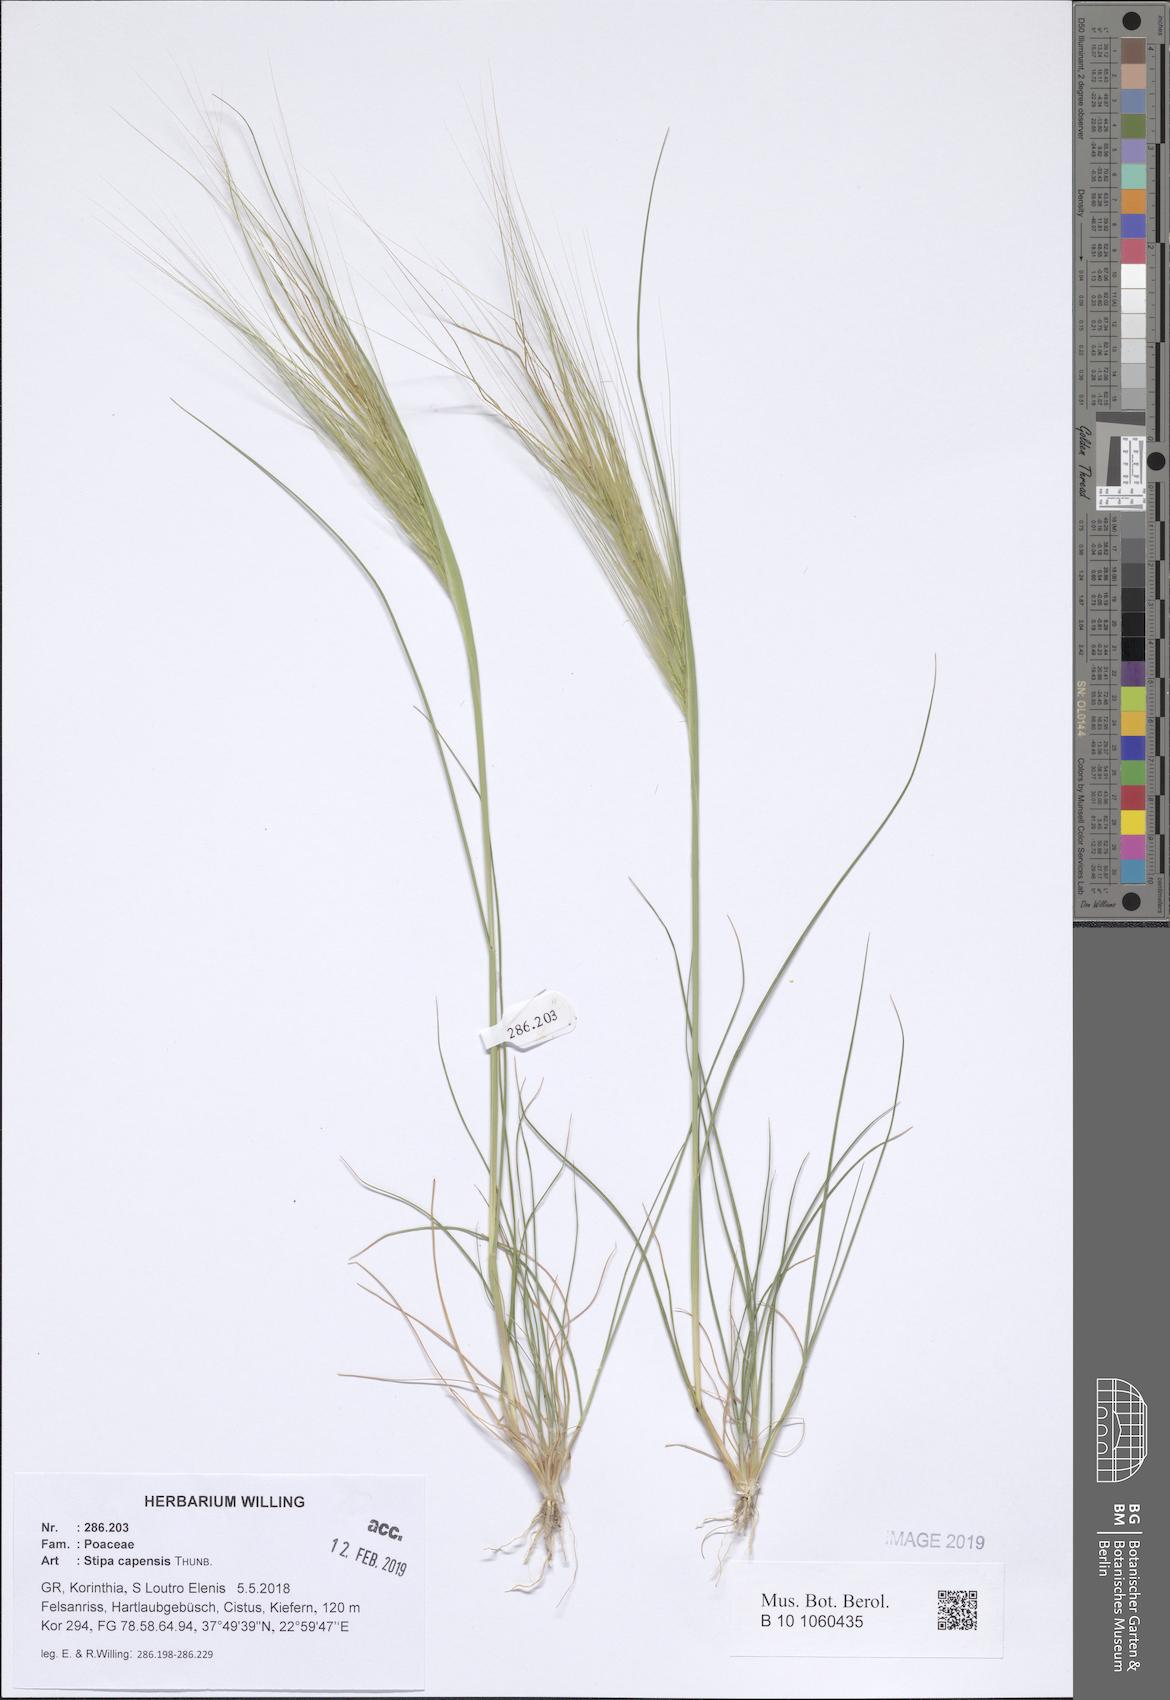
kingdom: Plantae
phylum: Tracheophyta
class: Liliopsida
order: Poales
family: Poaceae
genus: Stipellula
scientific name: Stipellula capensis
